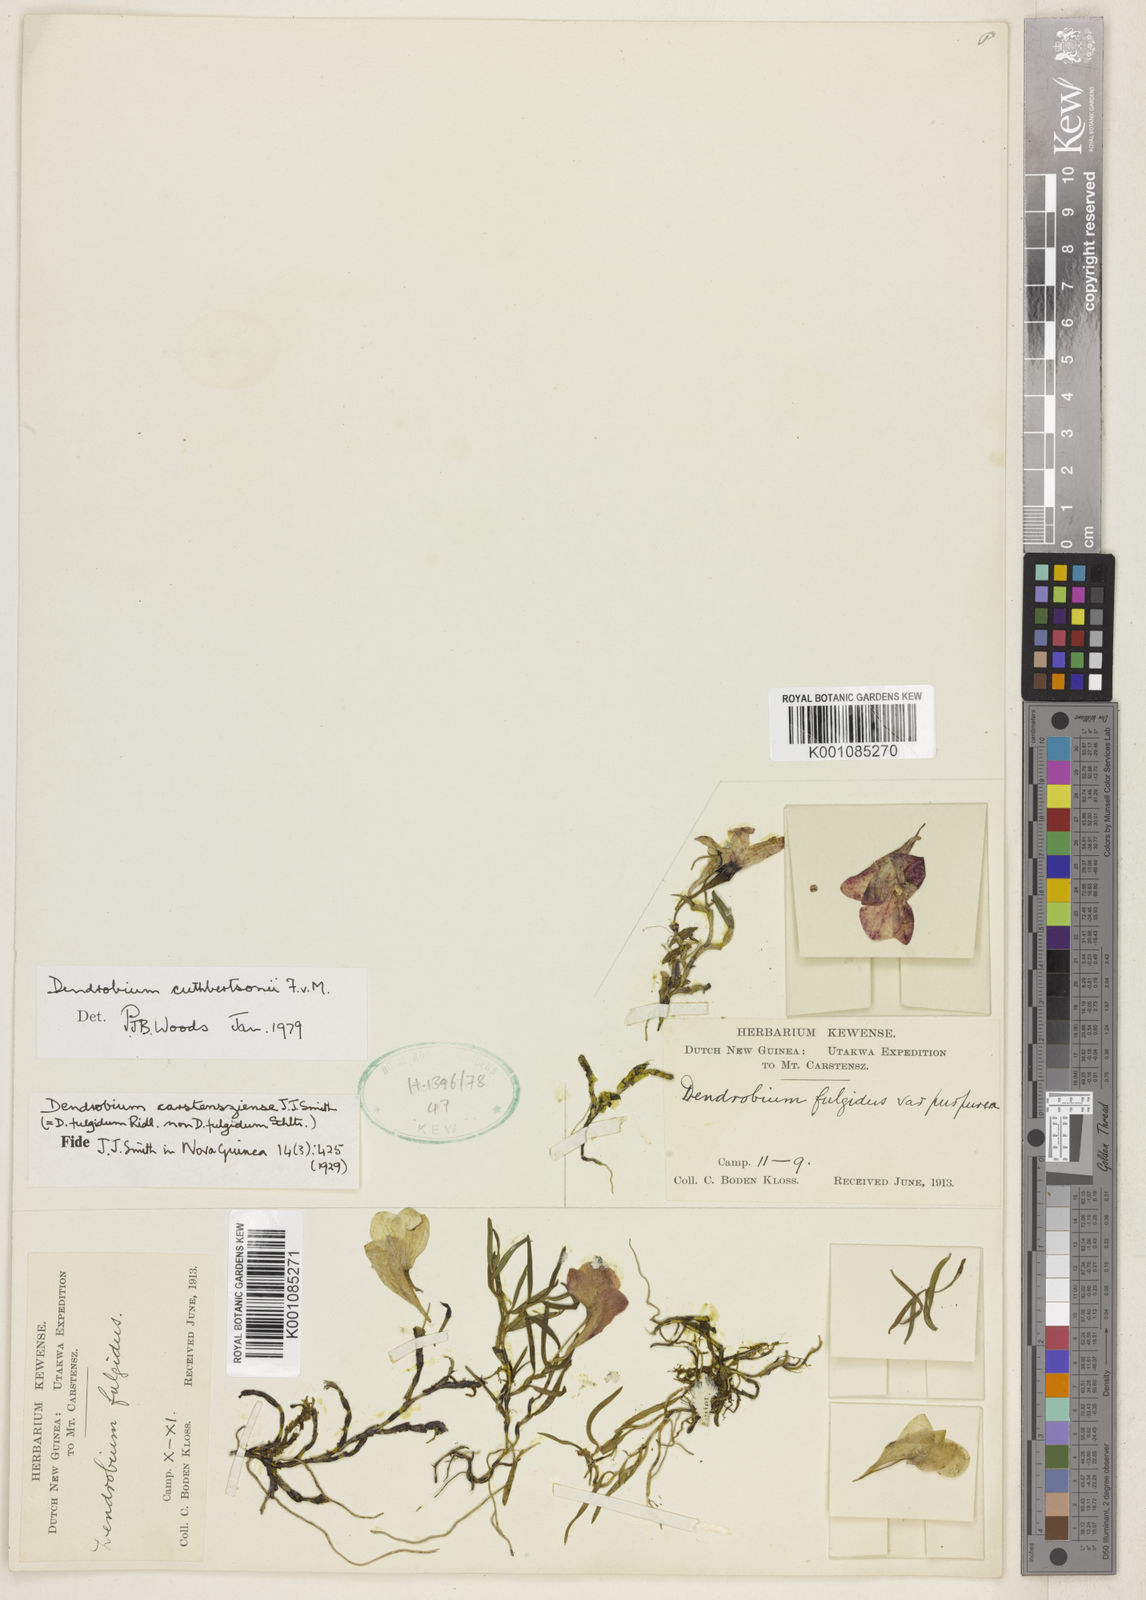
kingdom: Plantae
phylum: Tracheophyta
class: Liliopsida
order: Asparagales
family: Orchidaceae
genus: Dendrobium
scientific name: Dendrobium cuthbertsonii
